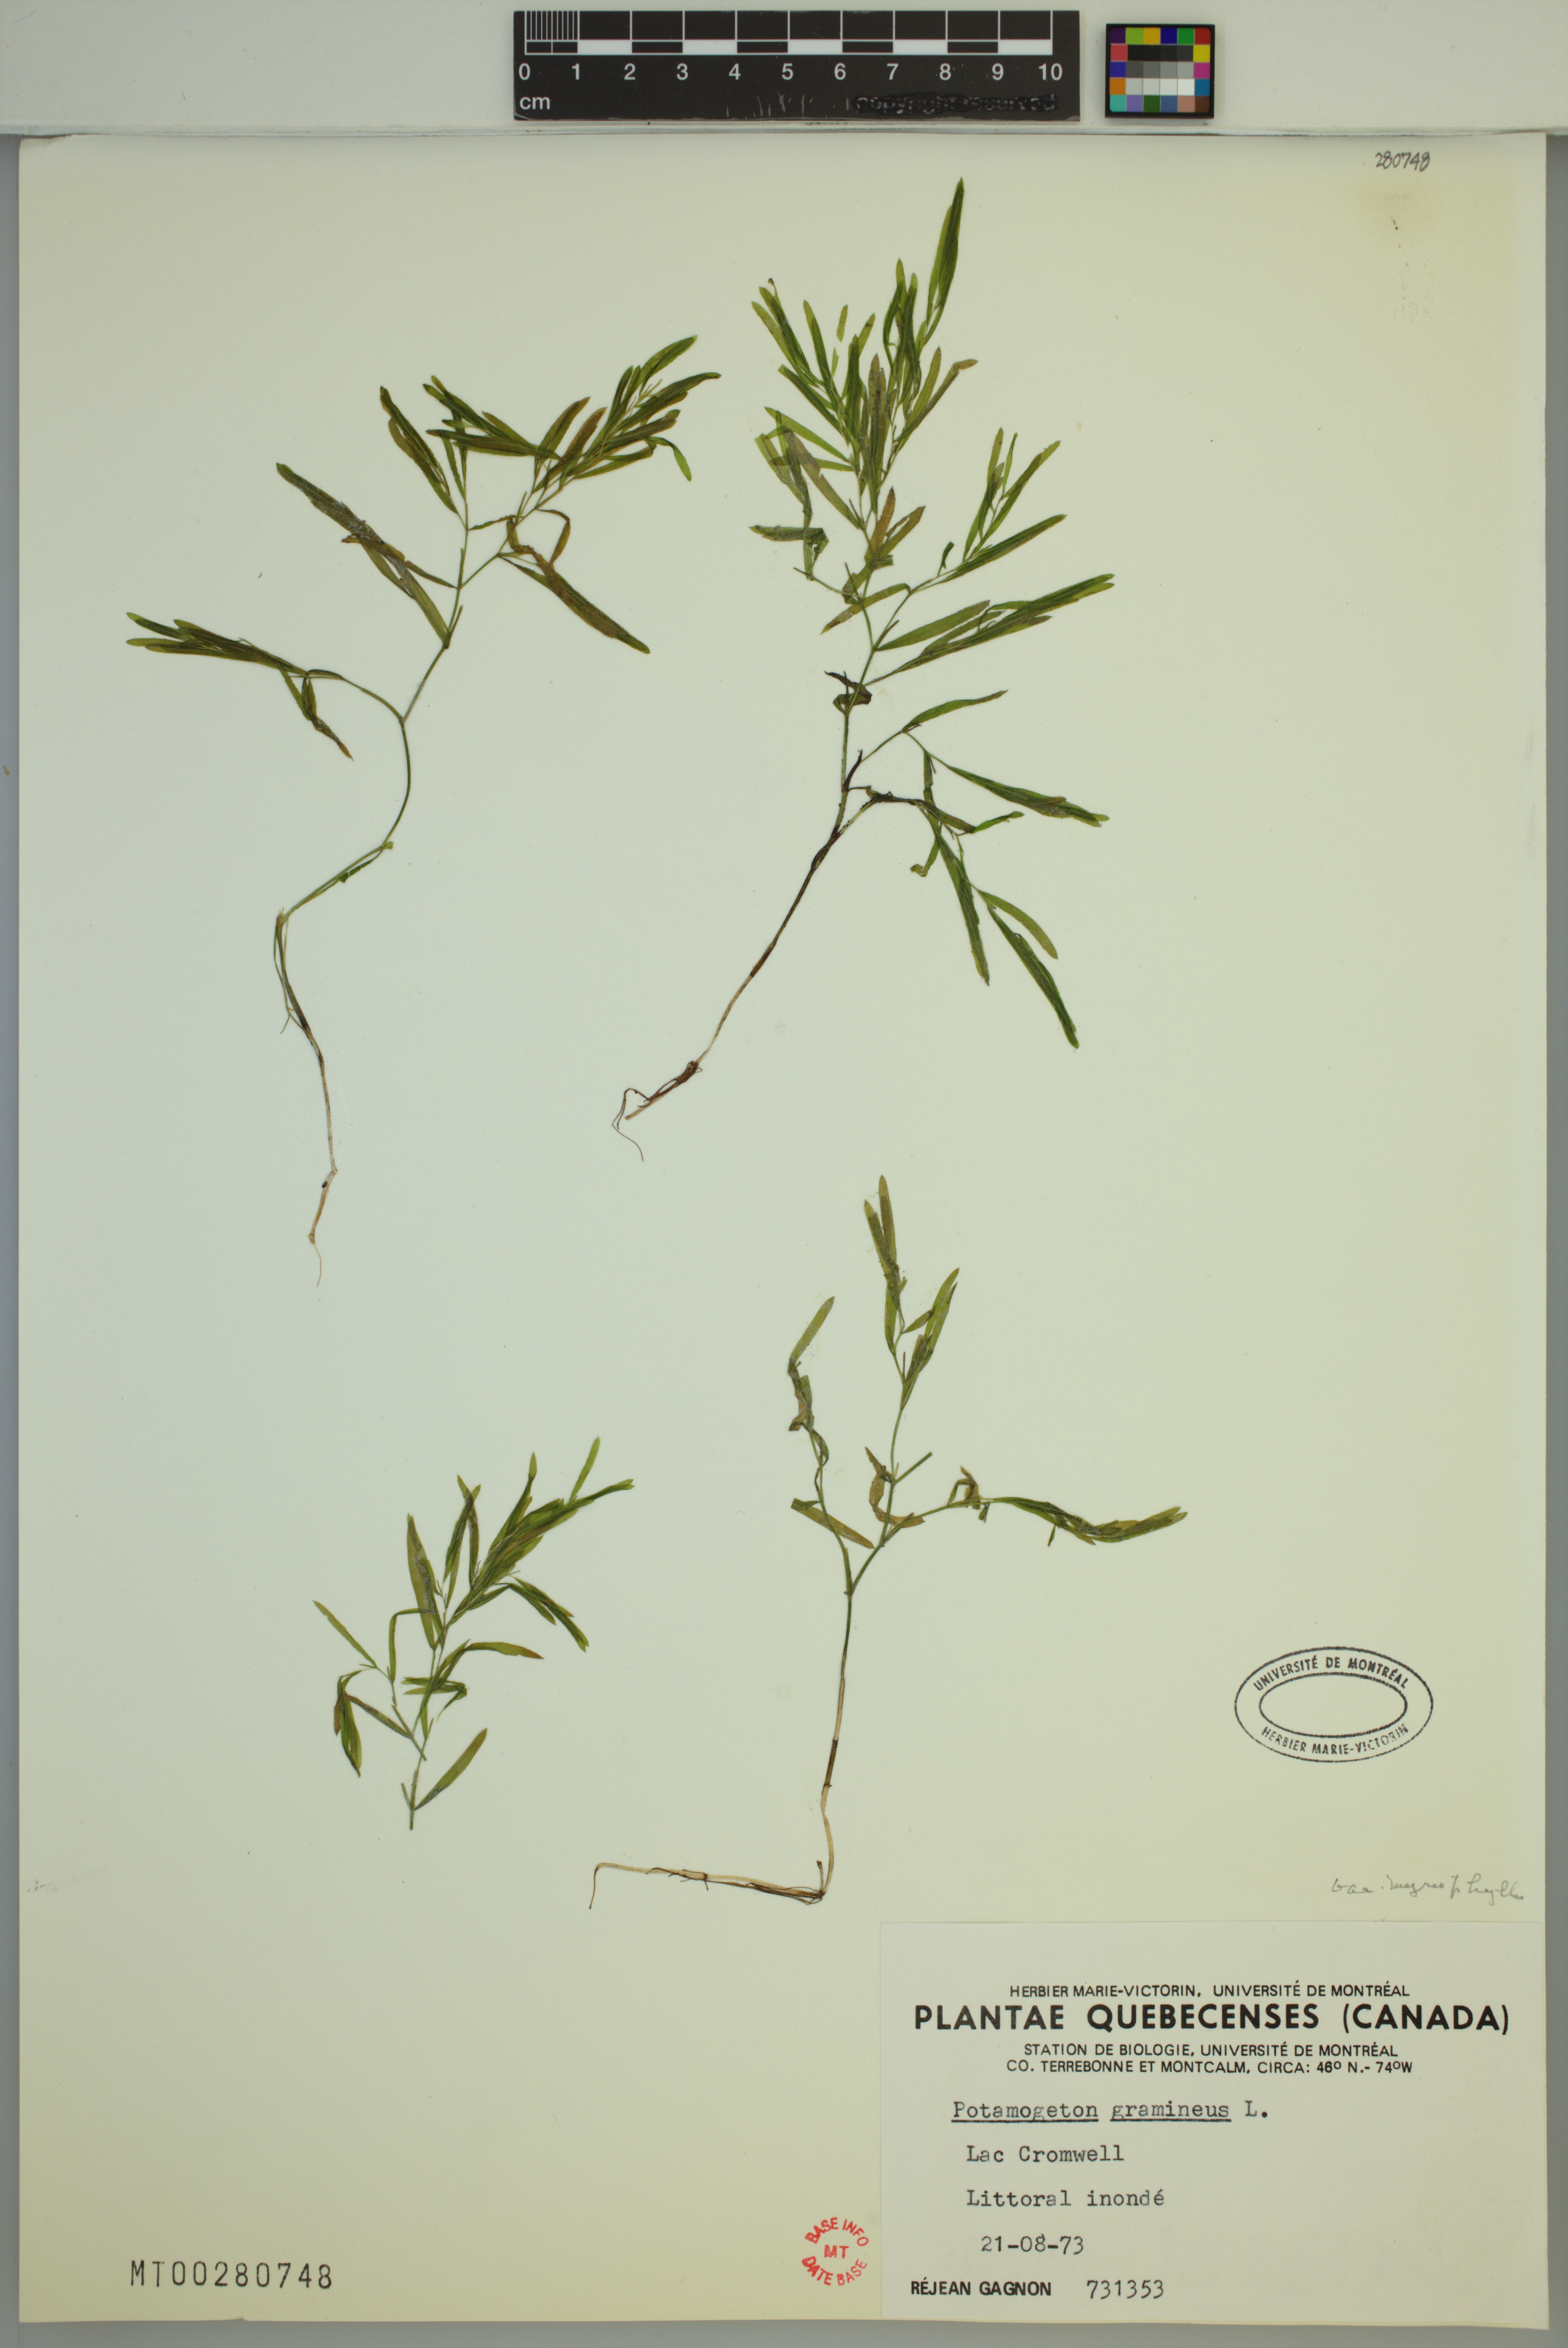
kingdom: Plantae
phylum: Tracheophyta
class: Liliopsida
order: Alismatales
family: Potamogetonaceae
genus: Potamogeton
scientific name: Potamogeton gramineus
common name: Various-leaved pondweed
